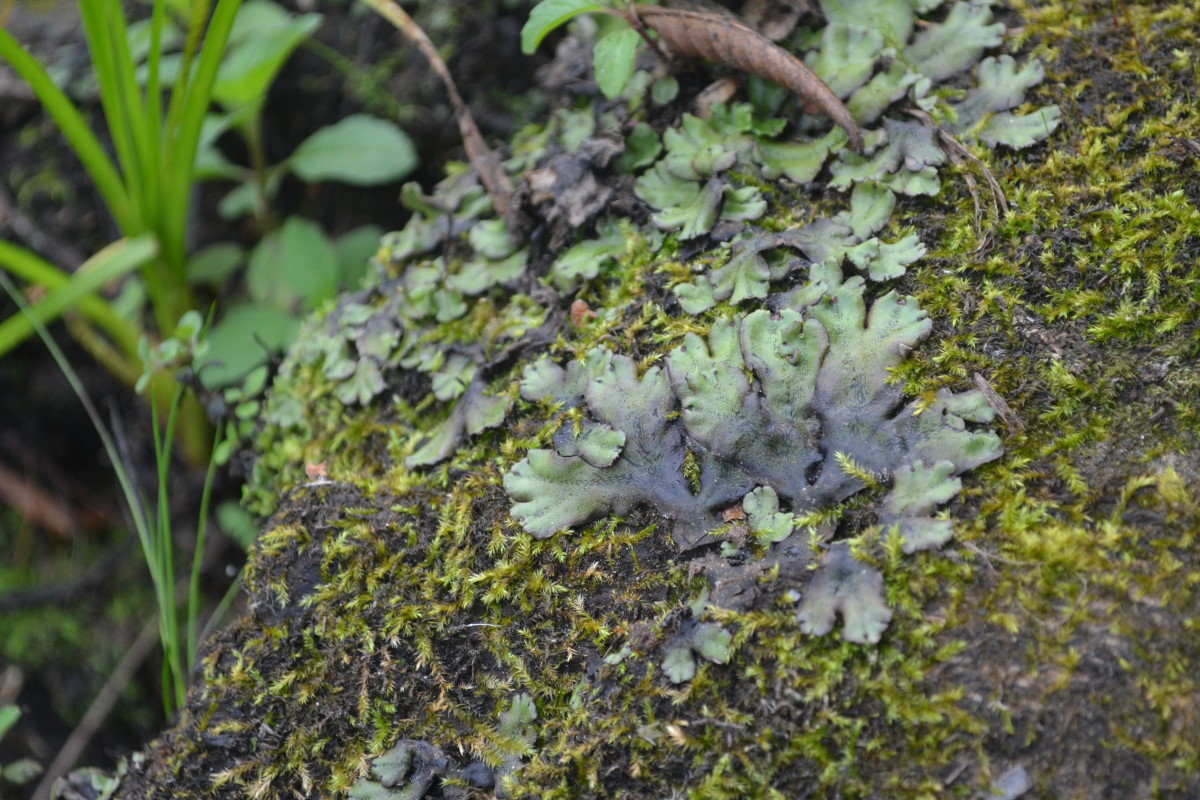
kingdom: Plantae
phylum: Marchantiophyta
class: Marchantiopsida
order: Marchantiales
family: Marchantiaceae
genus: Marchantia
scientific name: Marchantia
